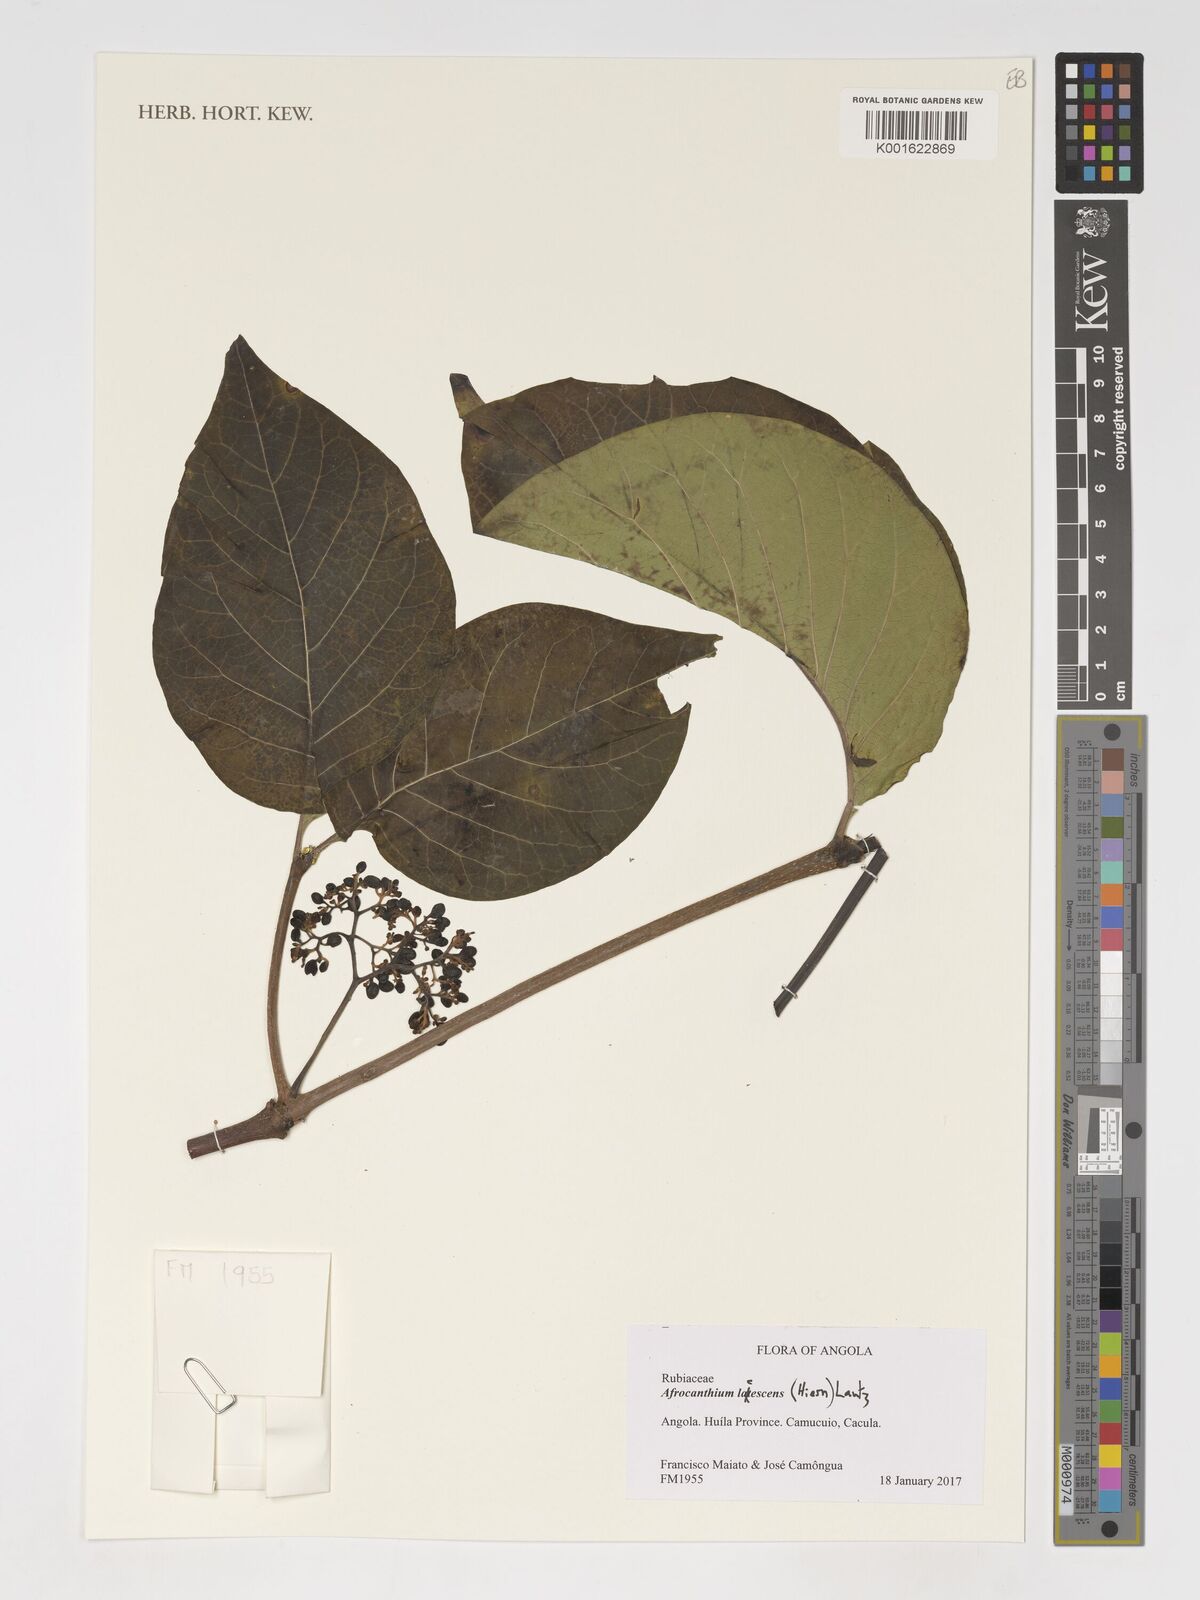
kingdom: Plantae
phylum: Tracheophyta
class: Magnoliopsida
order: Gentianales
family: Rubiaceae
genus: Afrocanthium
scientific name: Afrocanthium lactescens
